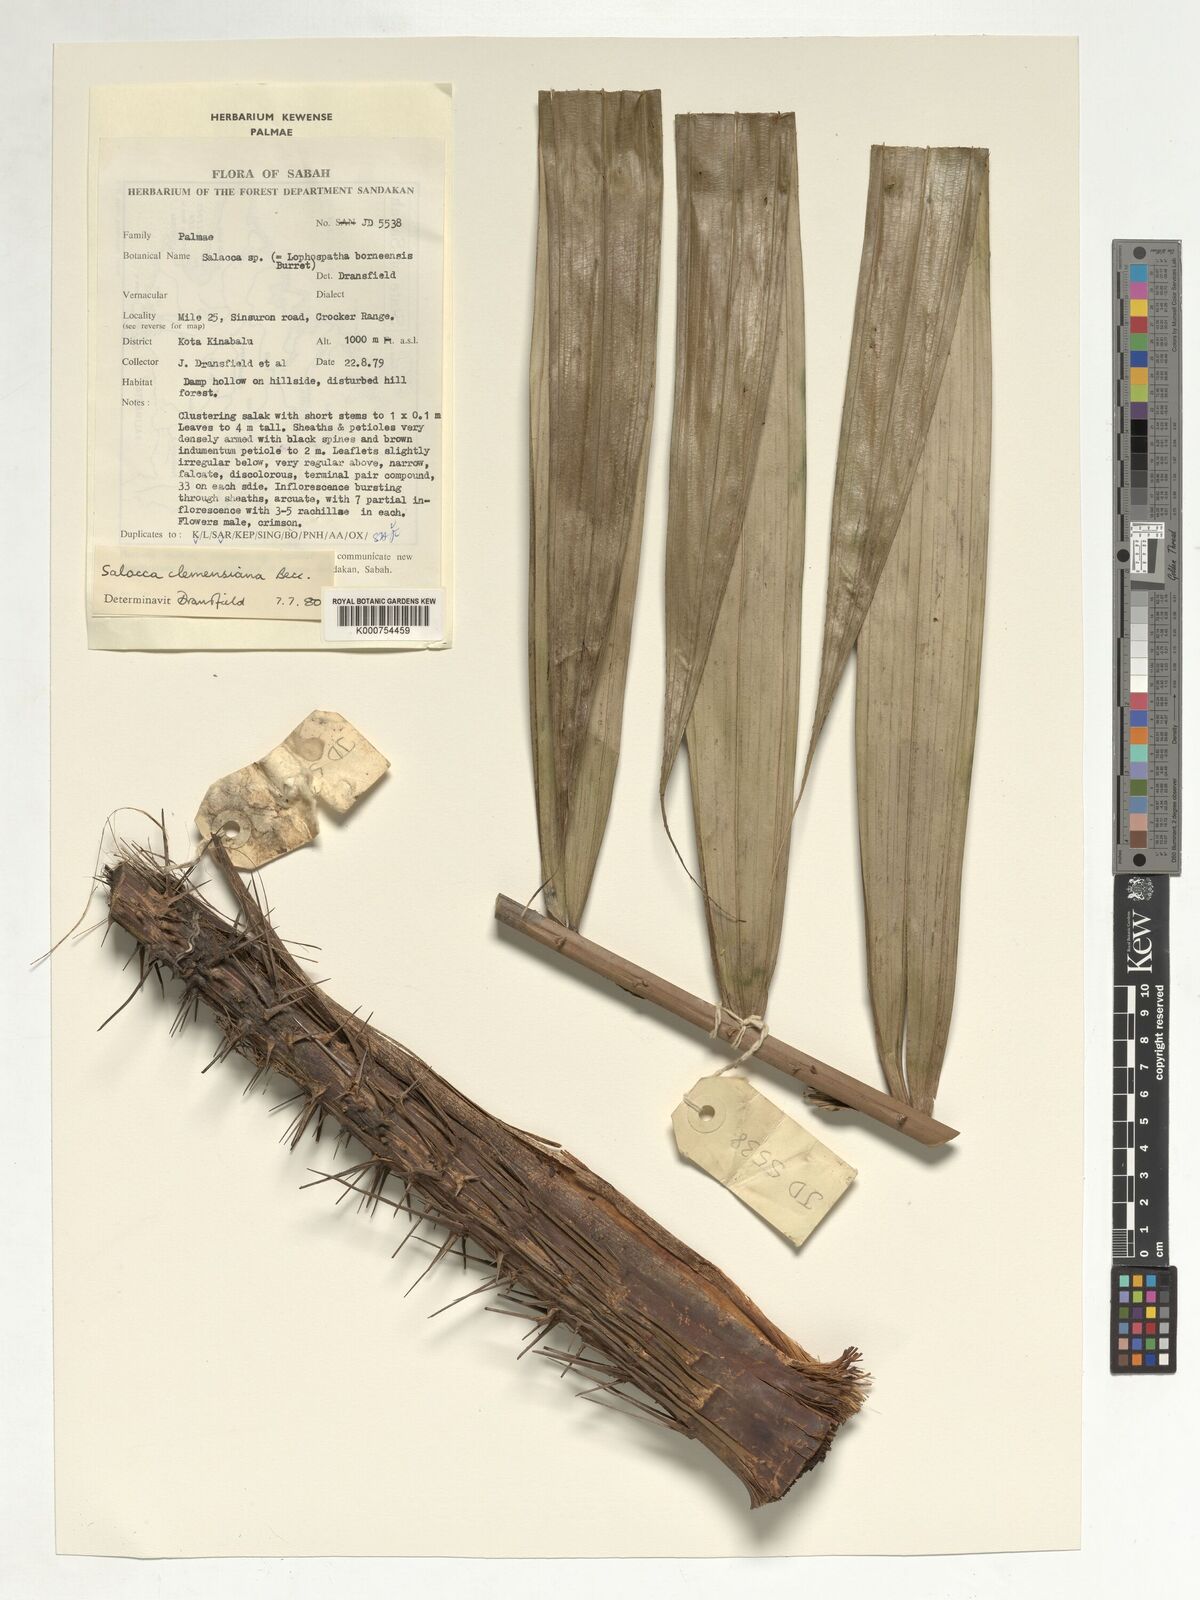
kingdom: Plantae
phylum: Tracheophyta
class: Liliopsida
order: Arecales
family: Arecaceae
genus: Salacca
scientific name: Salacca clemensiana
